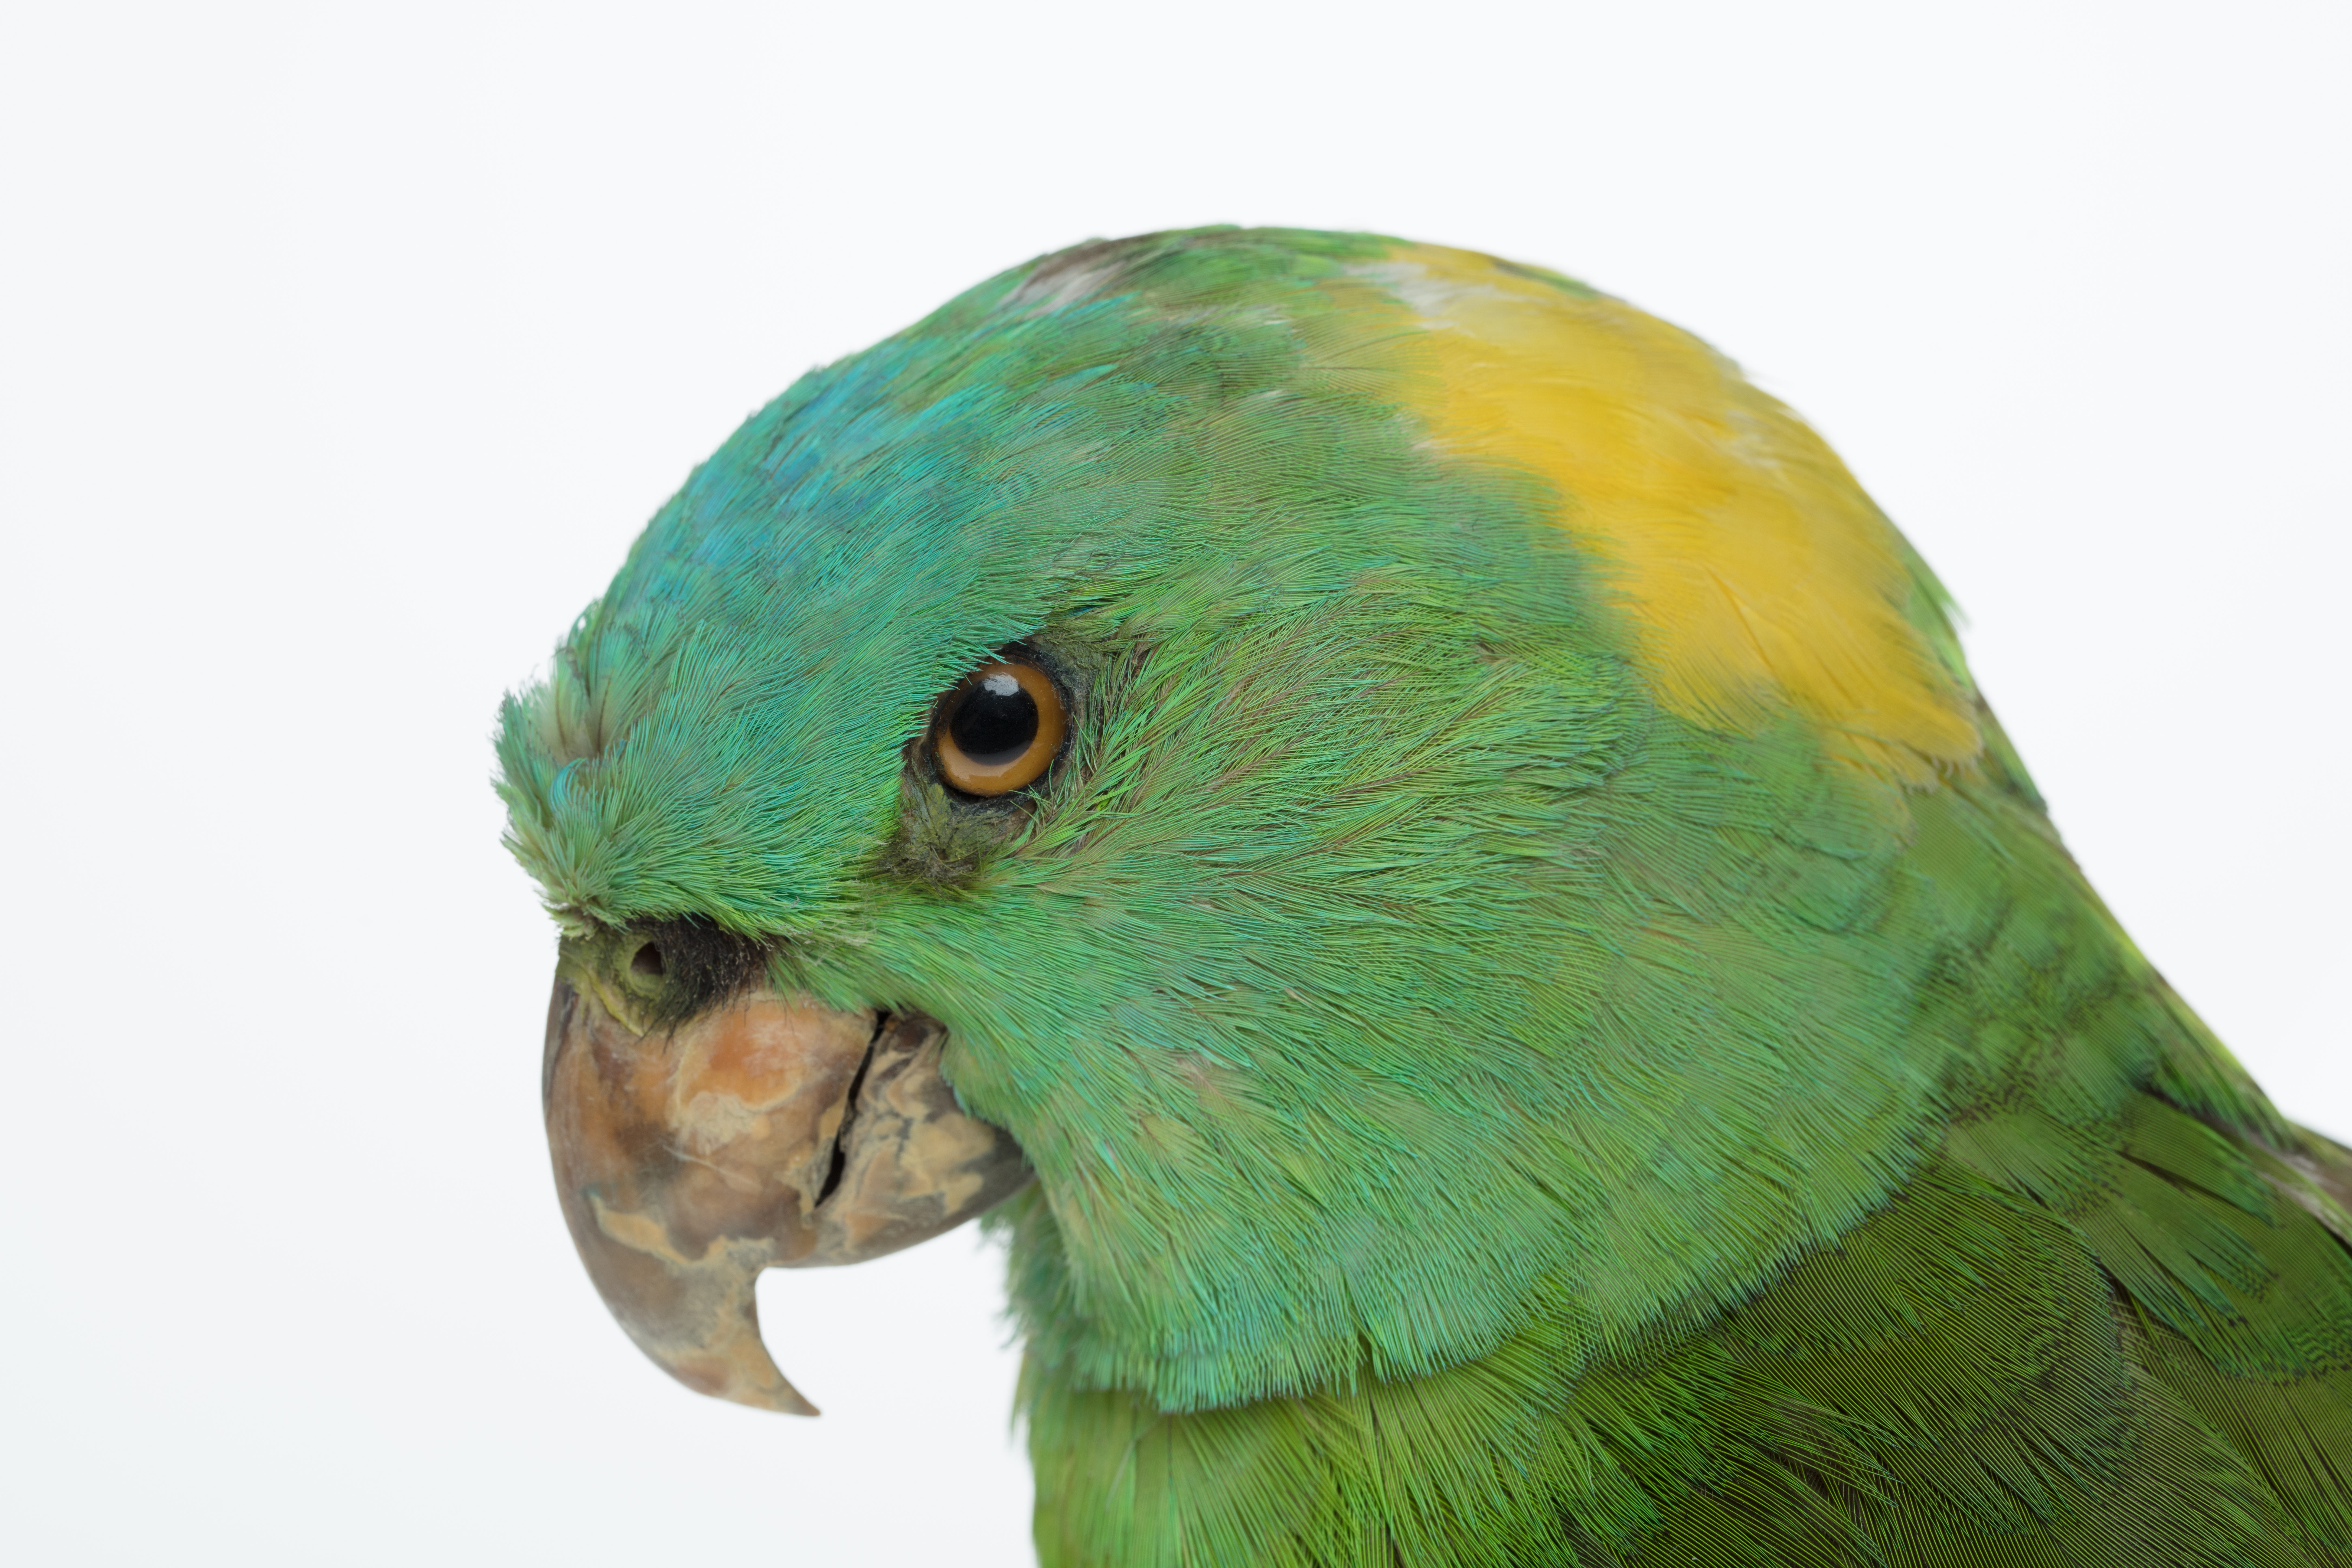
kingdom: Animalia
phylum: Chordata
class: Aves
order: Psittaciformes
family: Psittacidae
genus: Amazona
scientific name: Amazona ochrocephala
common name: Yellow-crowned amazon
